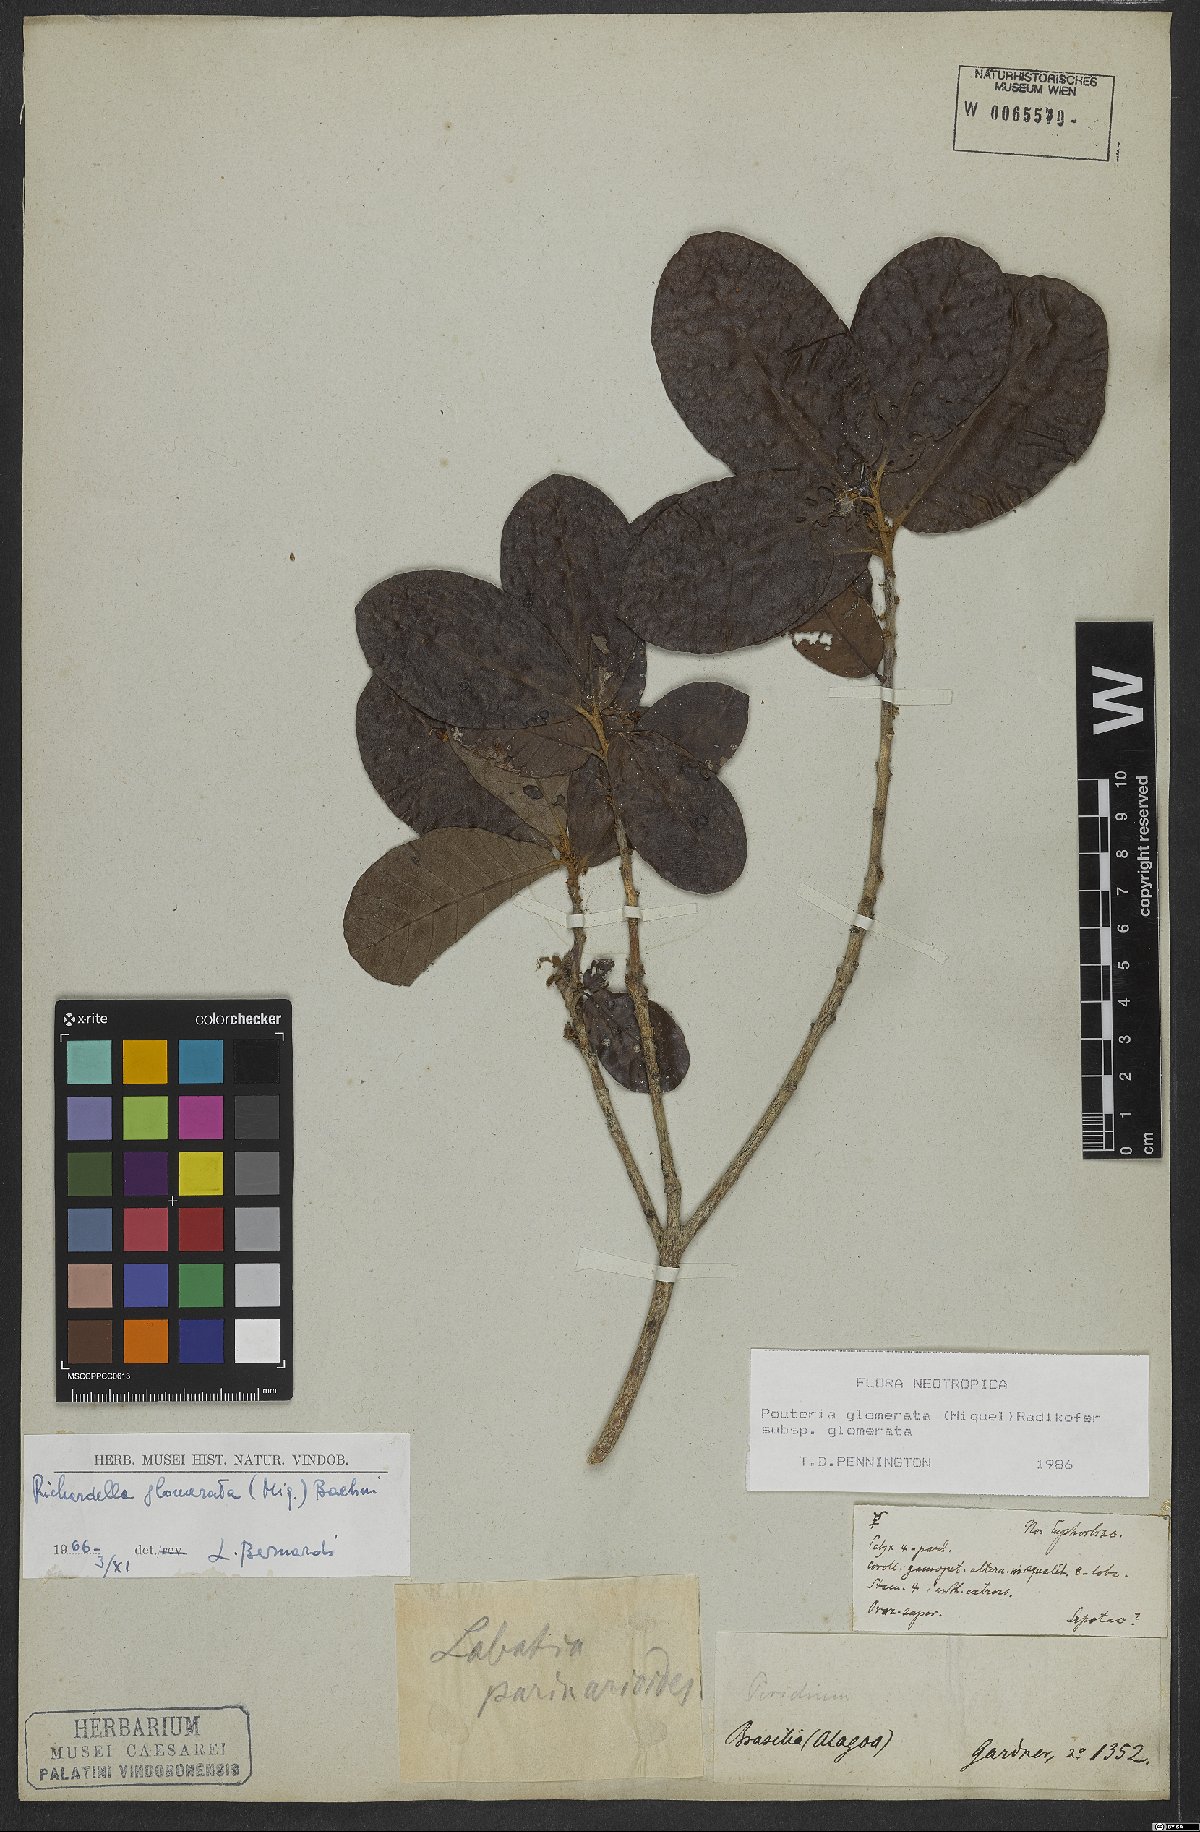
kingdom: Plantae
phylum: Tracheophyta
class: Magnoliopsida
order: Ericales
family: Sapotaceae
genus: Pouteria
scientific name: Pouteria glomerata
